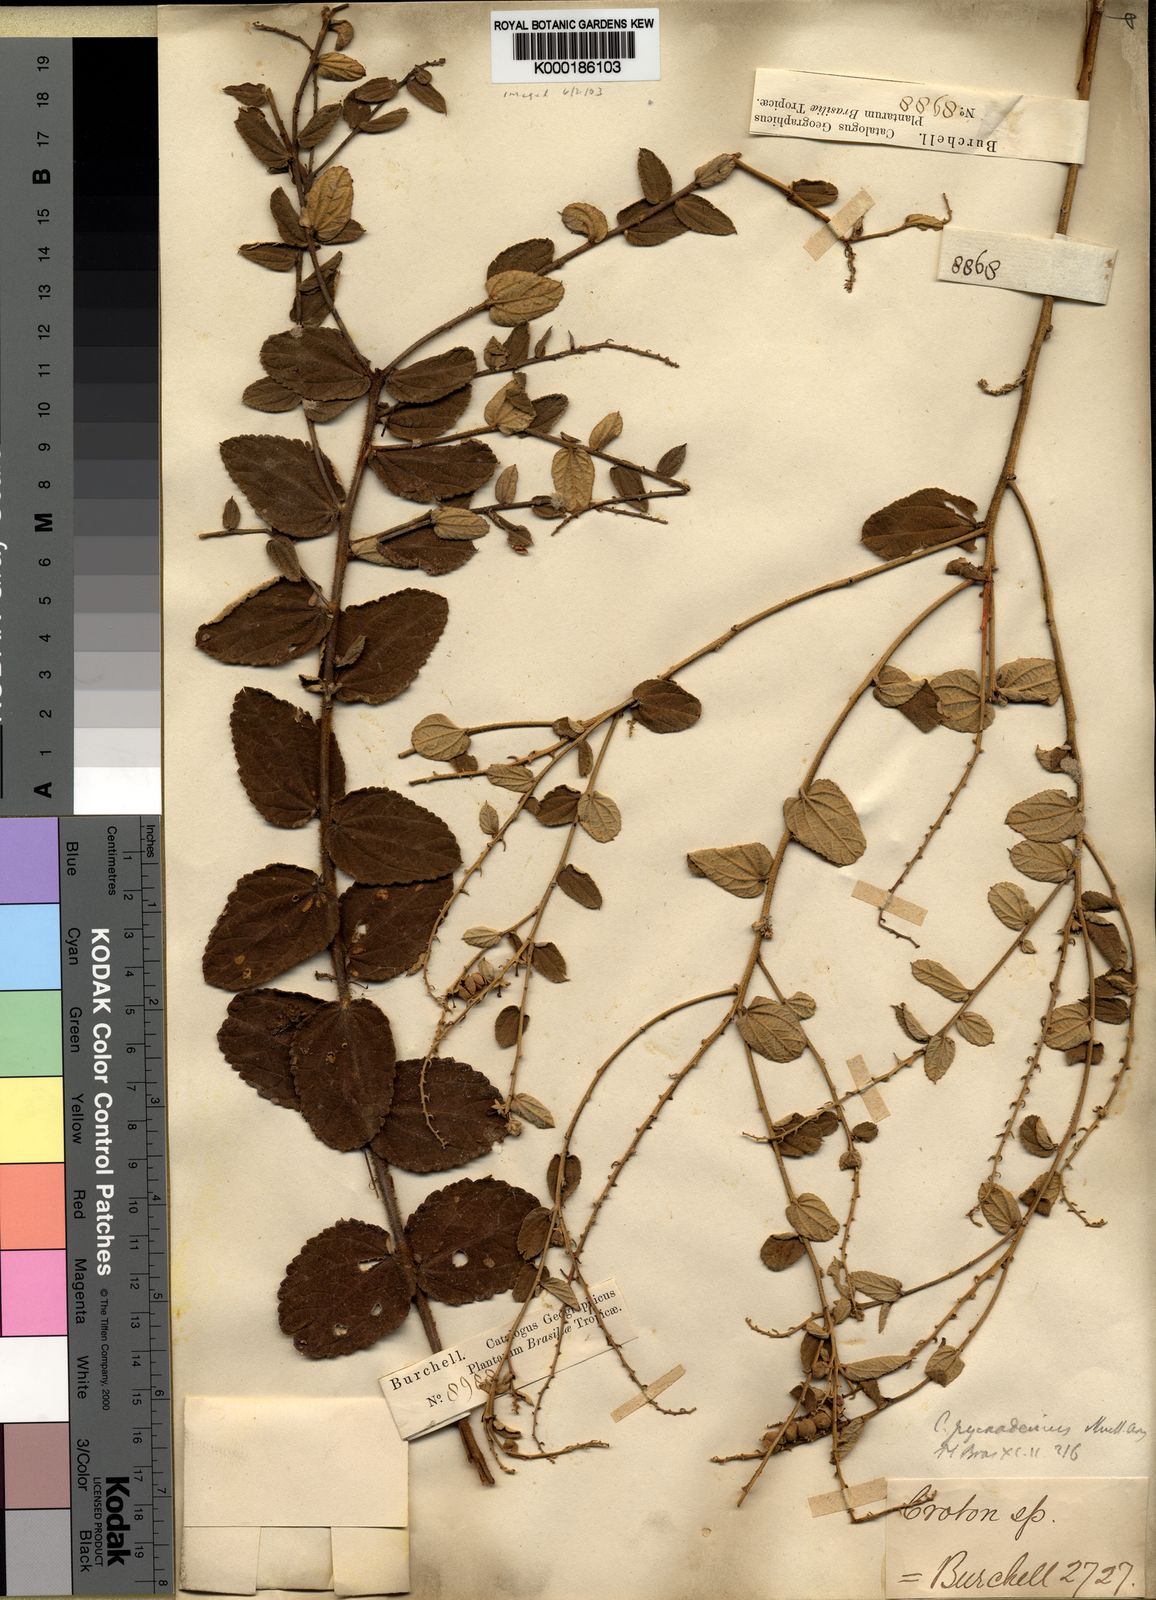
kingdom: Plantae
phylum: Tracheophyta
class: Magnoliopsida
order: Malpighiales
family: Euphorbiaceae
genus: Croton
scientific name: Croton
